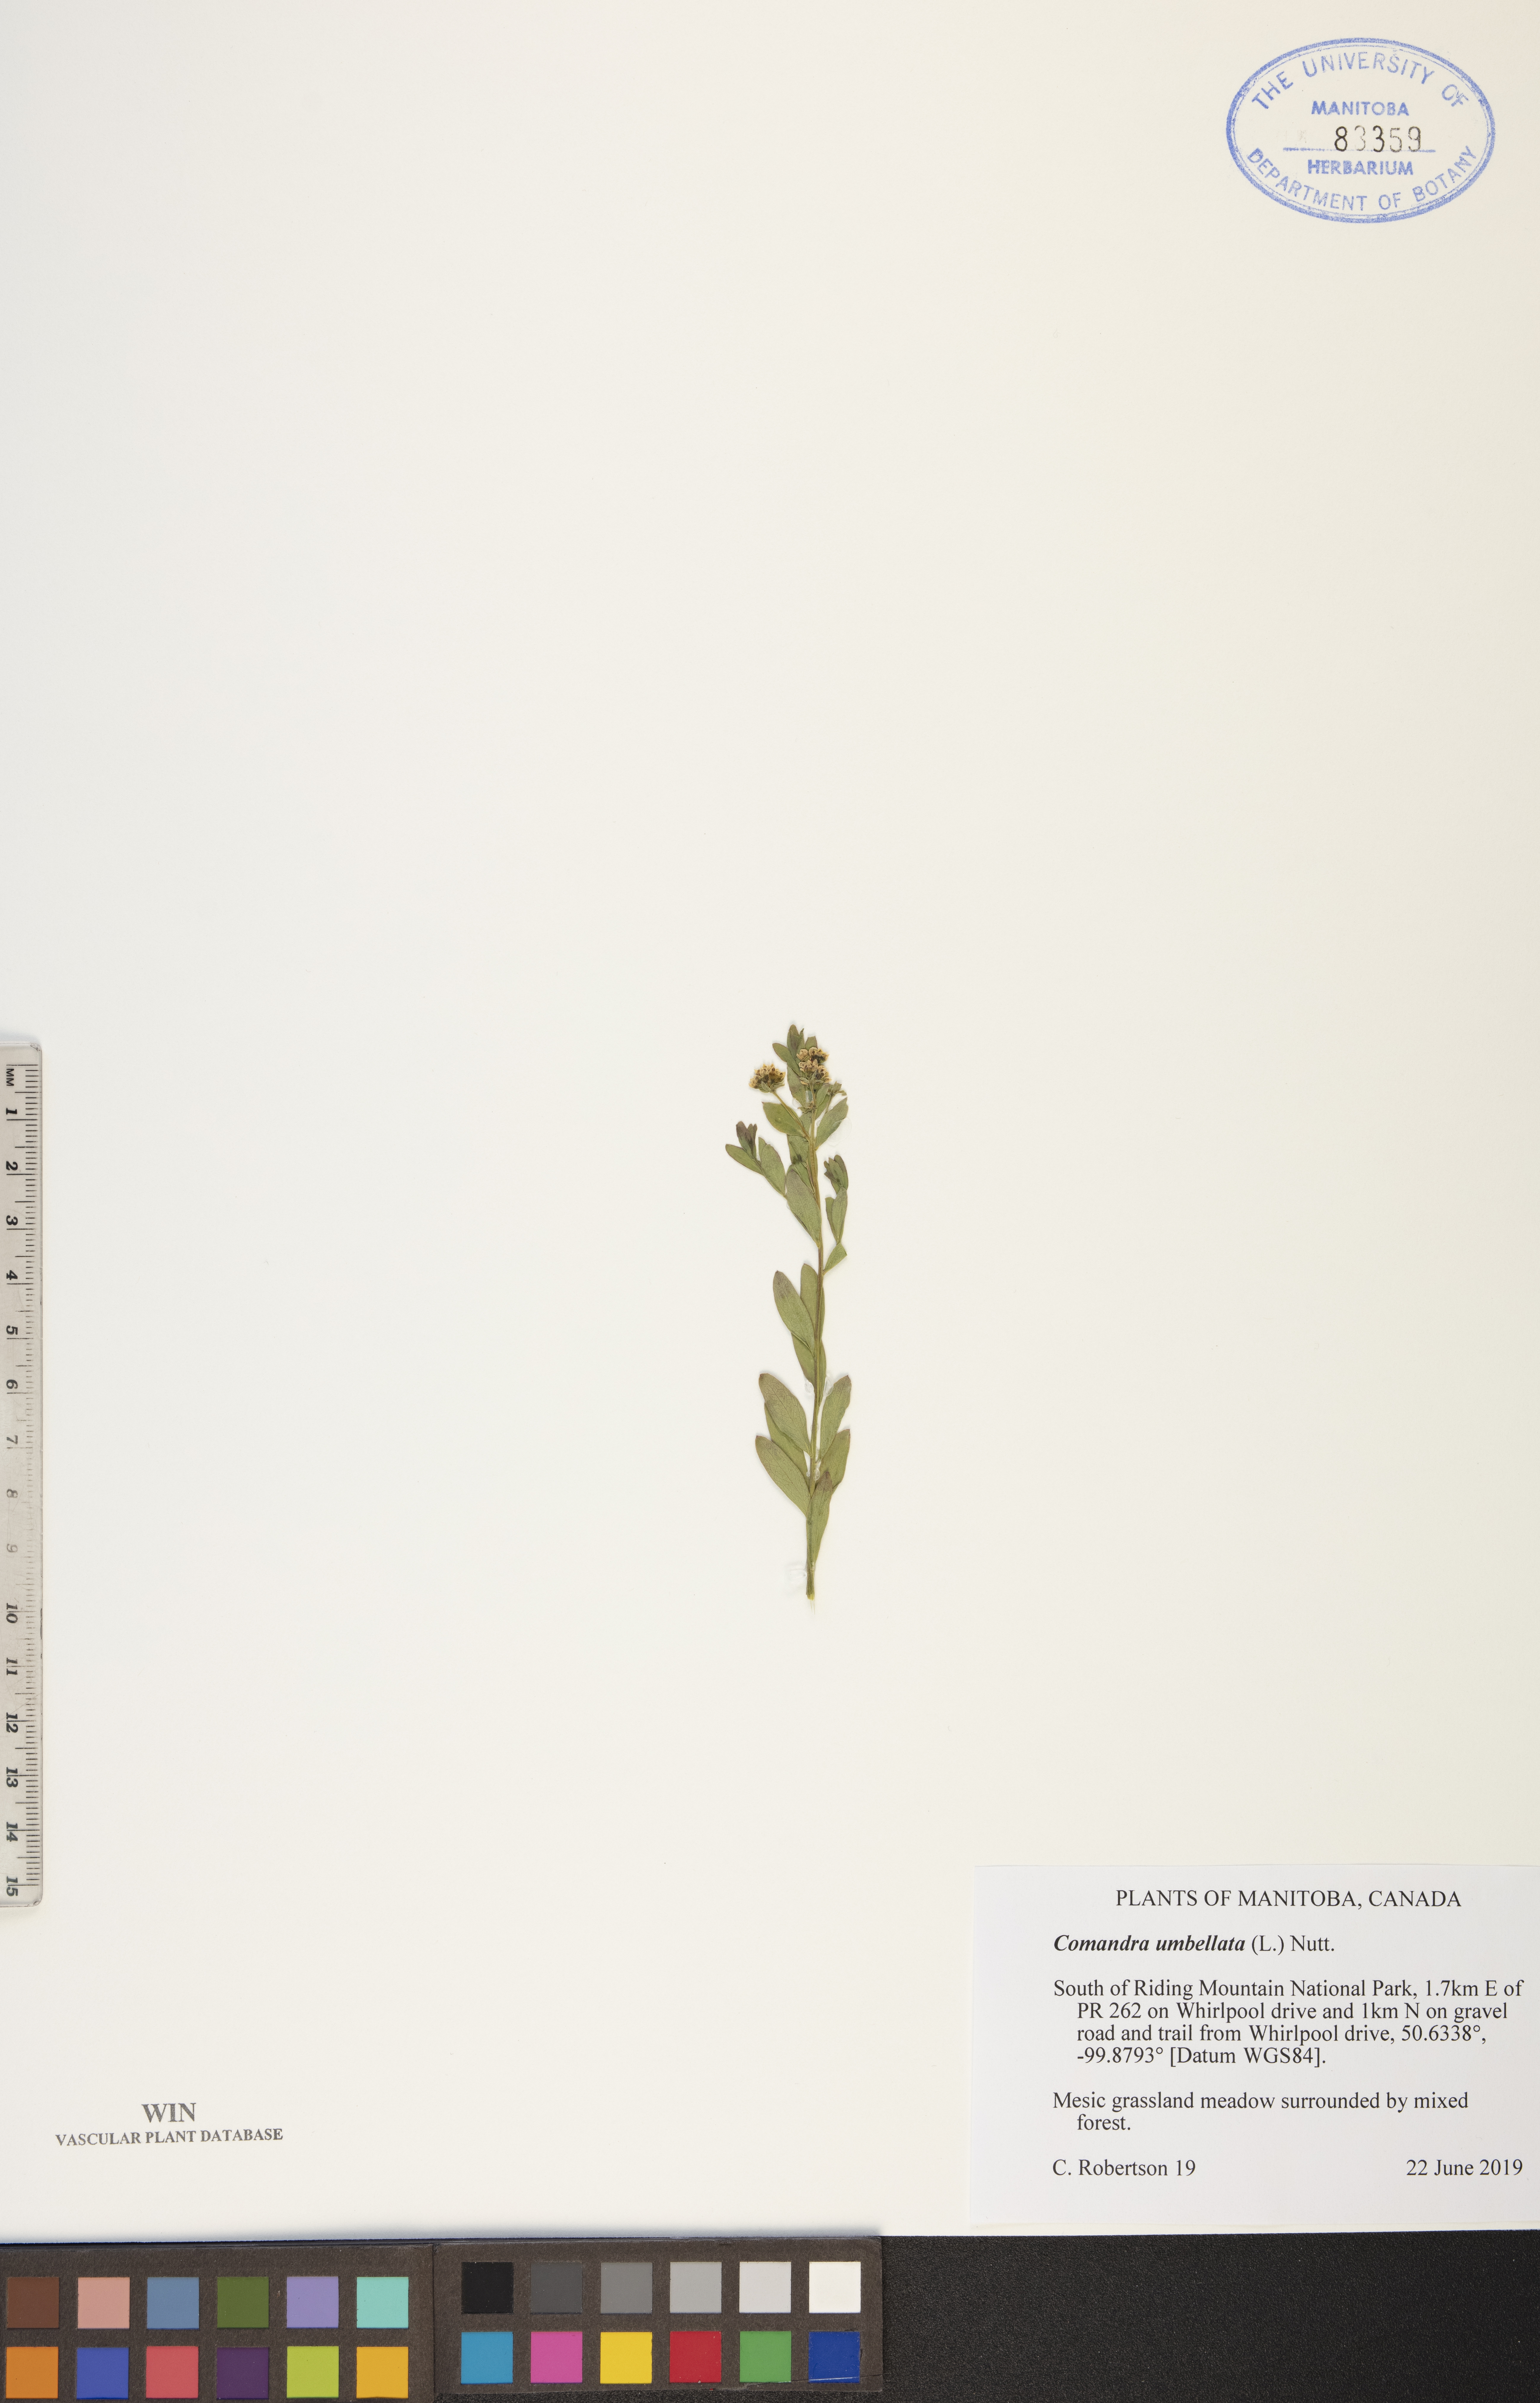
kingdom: Plantae
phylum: Tracheophyta
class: Magnoliopsida
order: Santalales
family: Comandraceae
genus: Comandra
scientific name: Comandra umbellata
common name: Bastard toadflax
